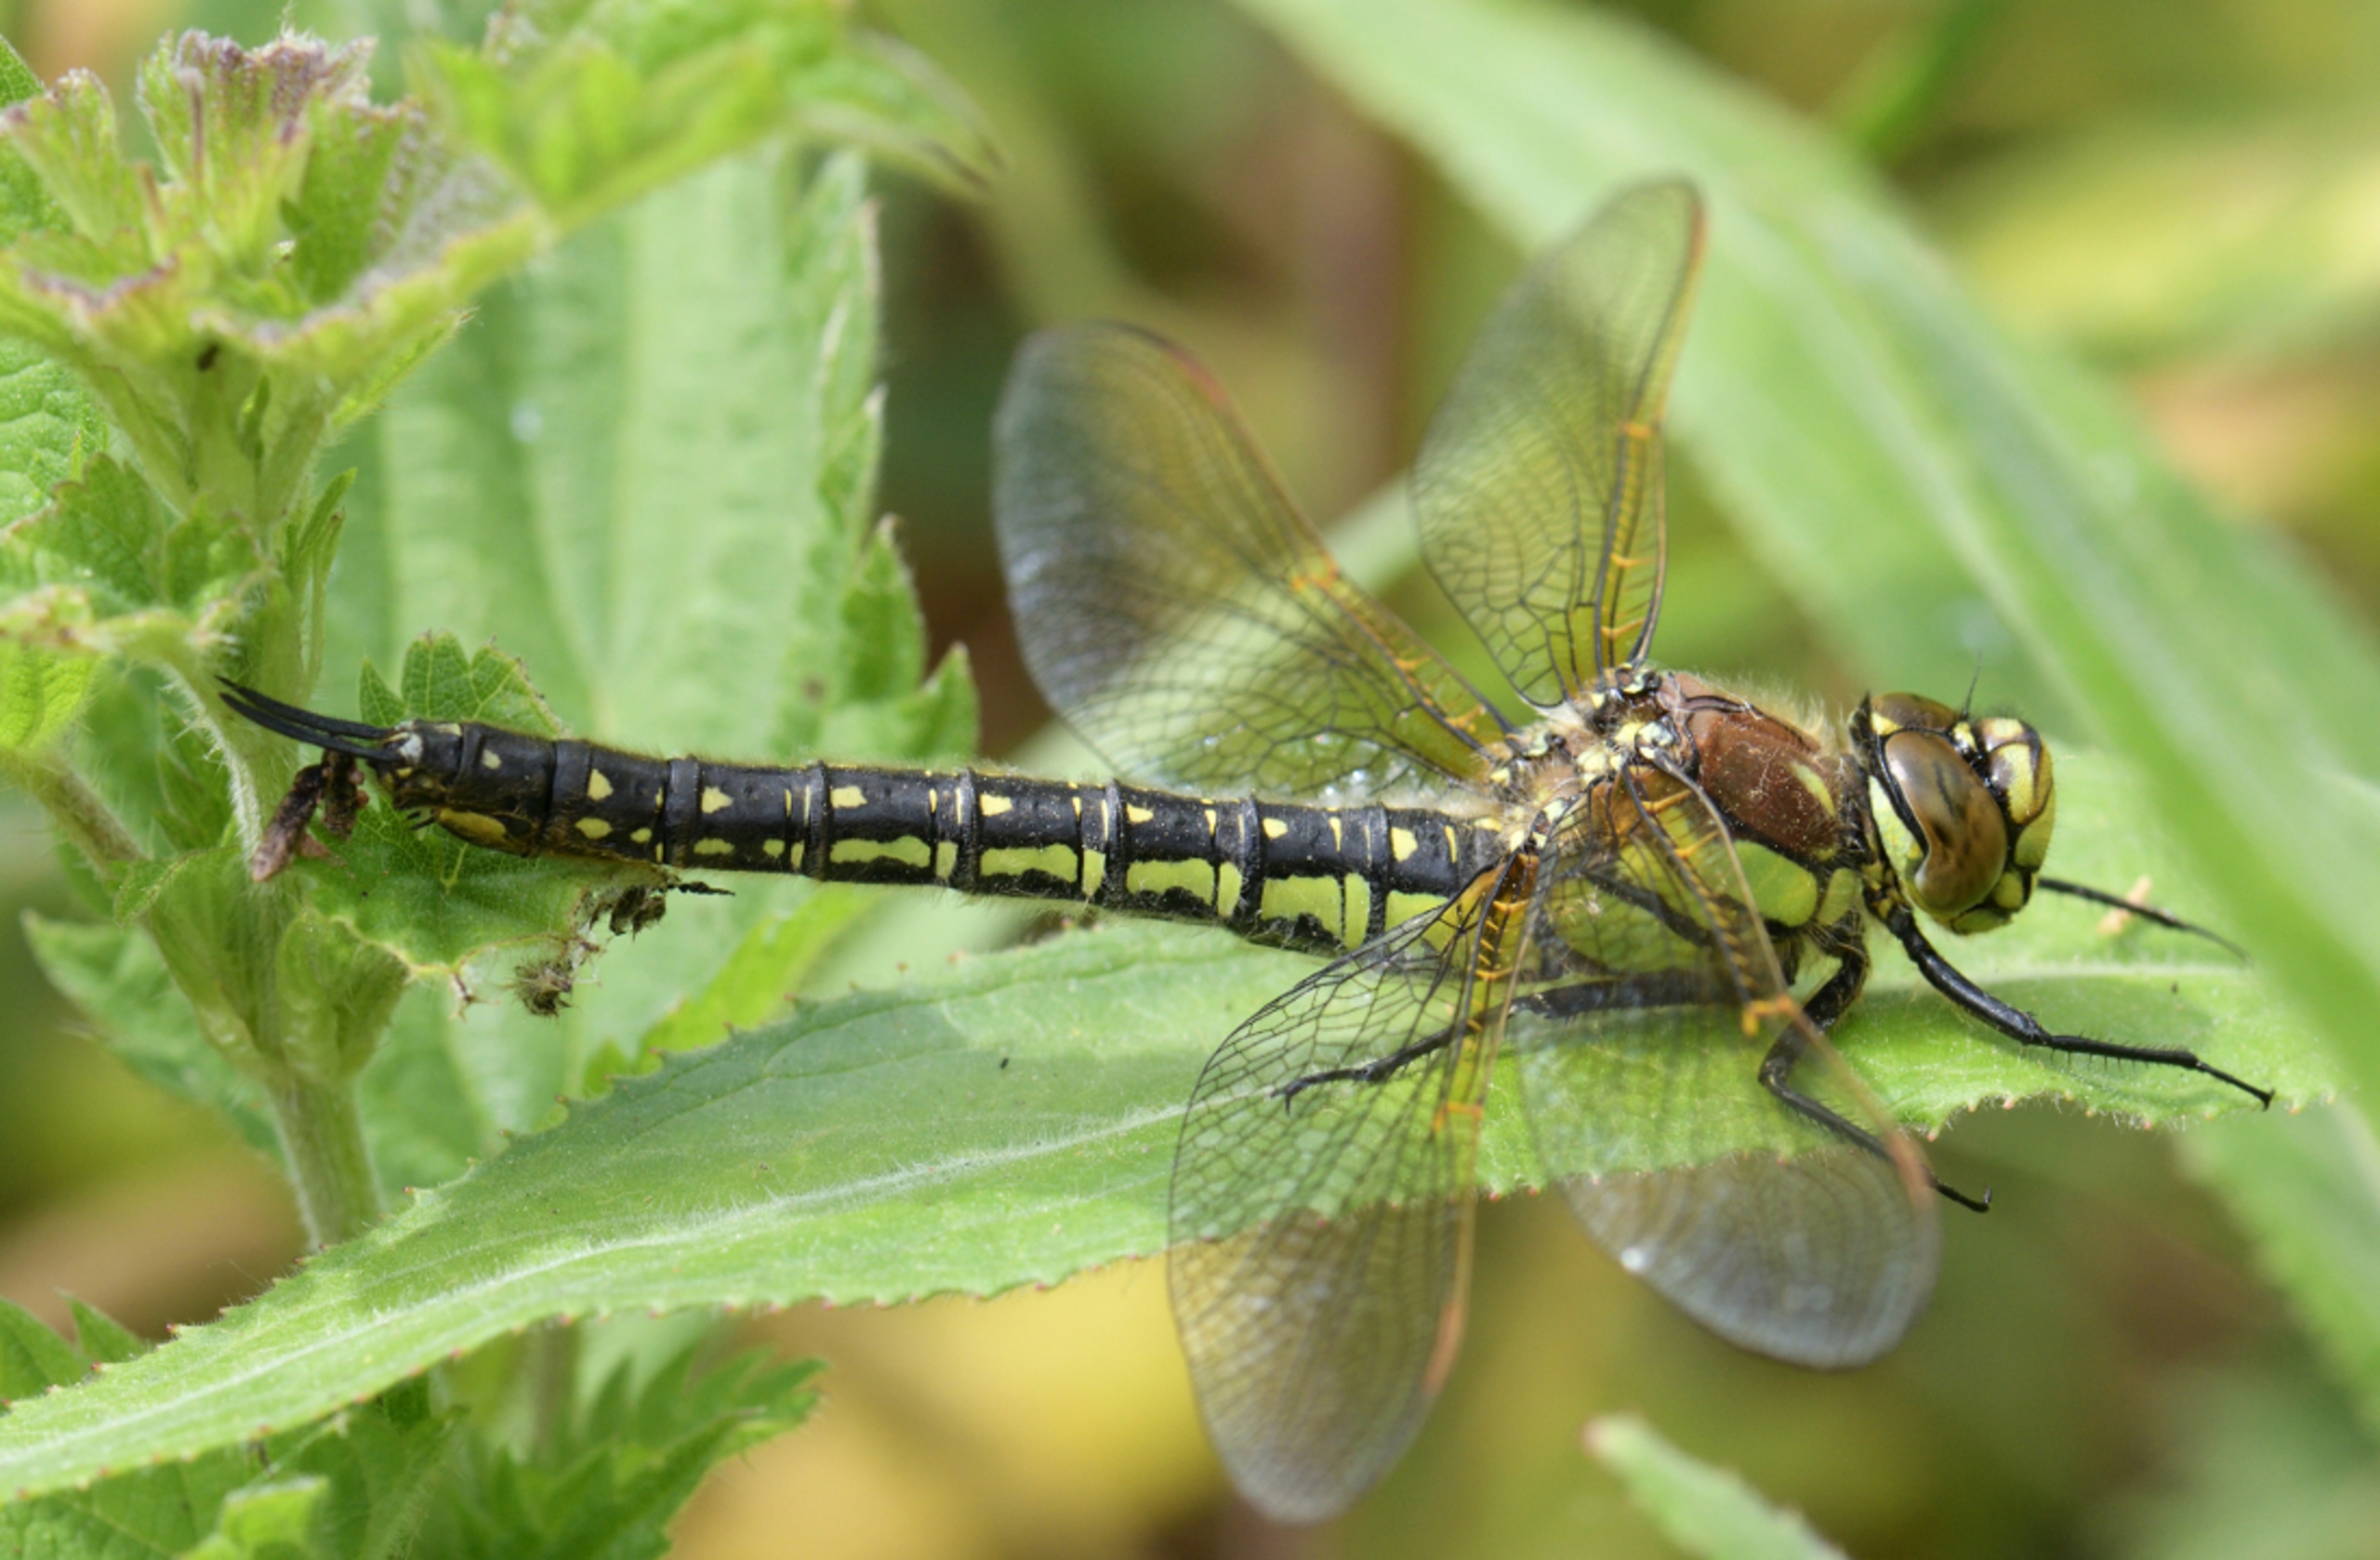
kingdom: Animalia
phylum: Arthropoda
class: Insecta
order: Odonata
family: Aeshnidae
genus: Brachytron
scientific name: Brachytron pratense
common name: Håret mosaikguldsmed
